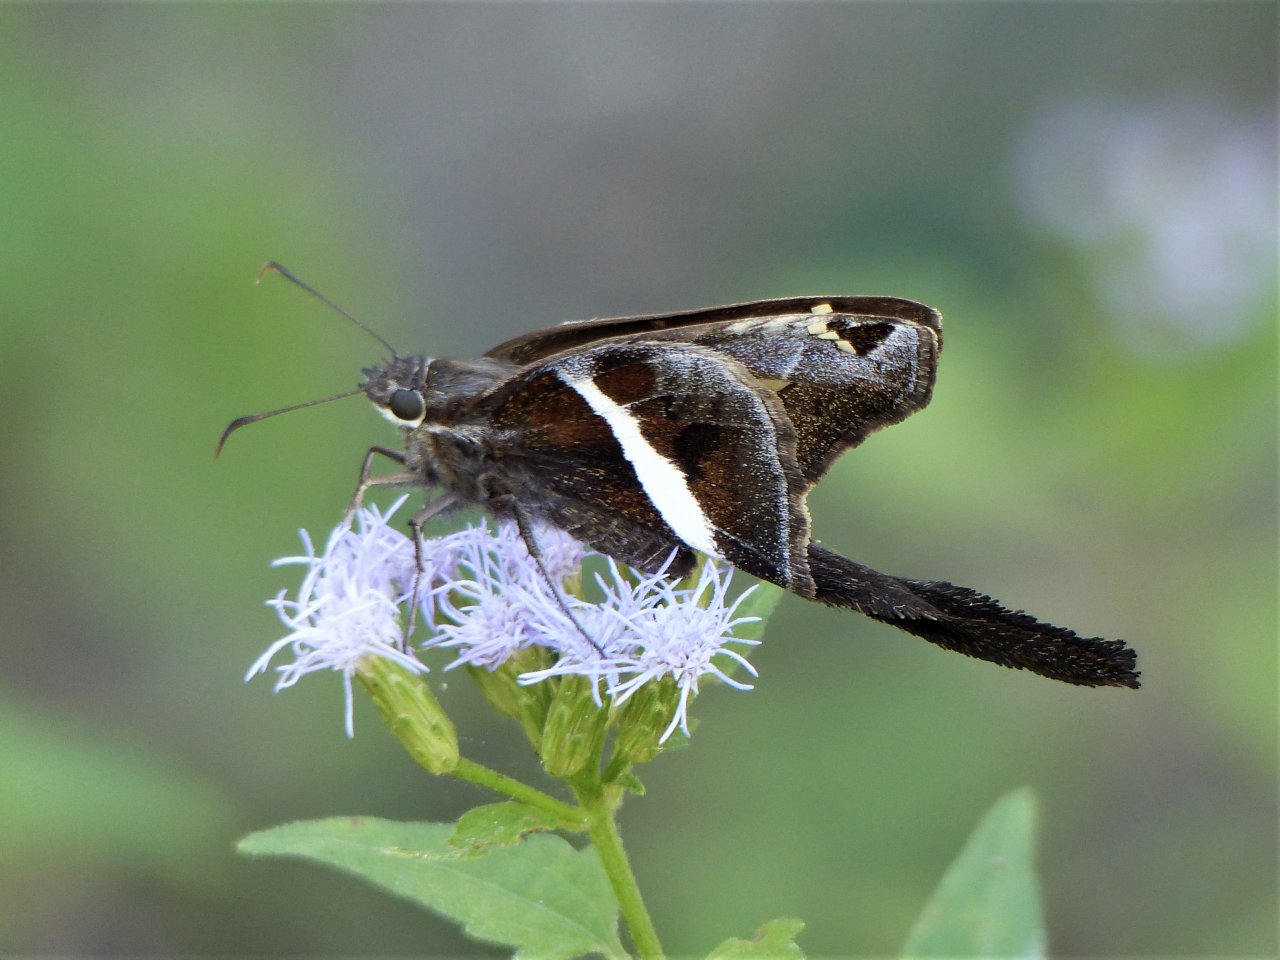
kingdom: Animalia
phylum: Arthropoda
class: Insecta
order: Lepidoptera
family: Hesperiidae
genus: Chioides
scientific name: Chioides catillus
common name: White-striped Longtail
